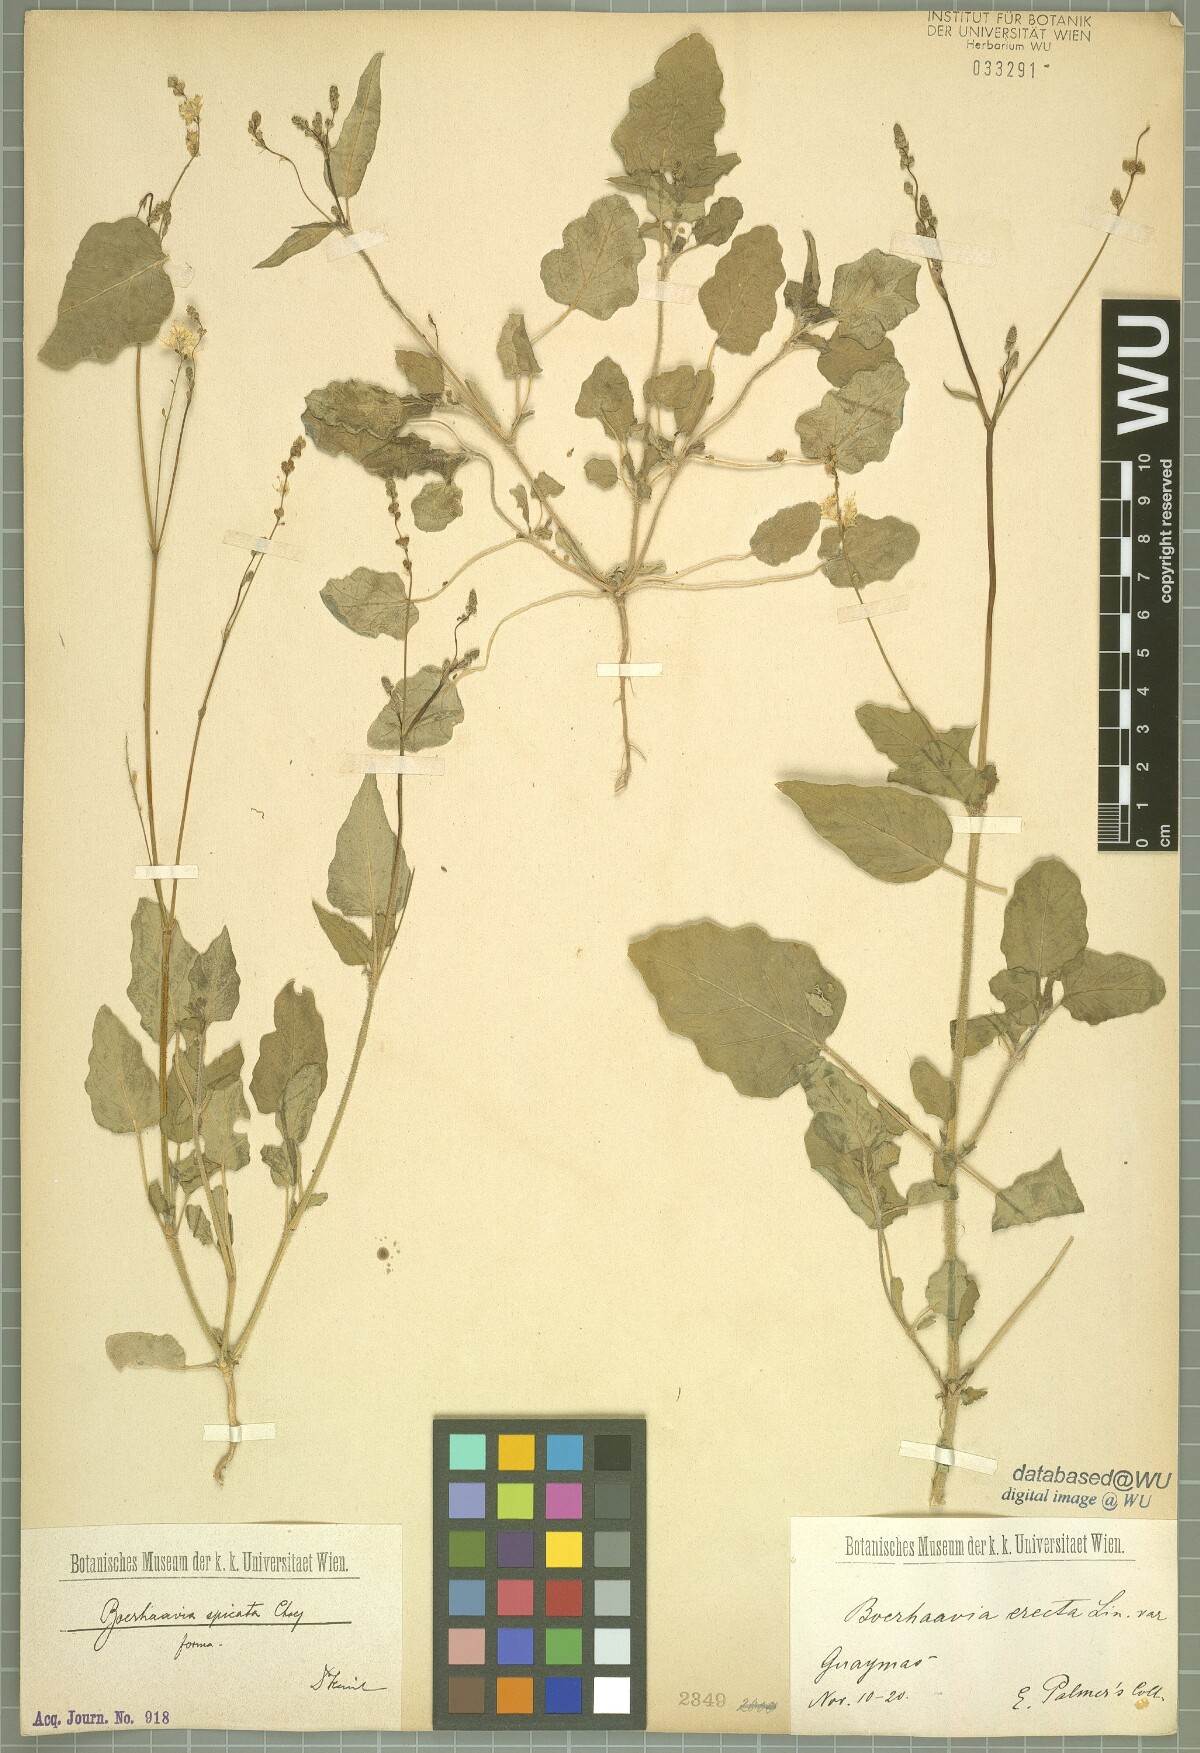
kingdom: Plantae
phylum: Tracheophyta
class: Magnoliopsida
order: Caryophyllales
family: Nyctaginaceae
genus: Boerhavia
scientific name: Boerhavia spicata
